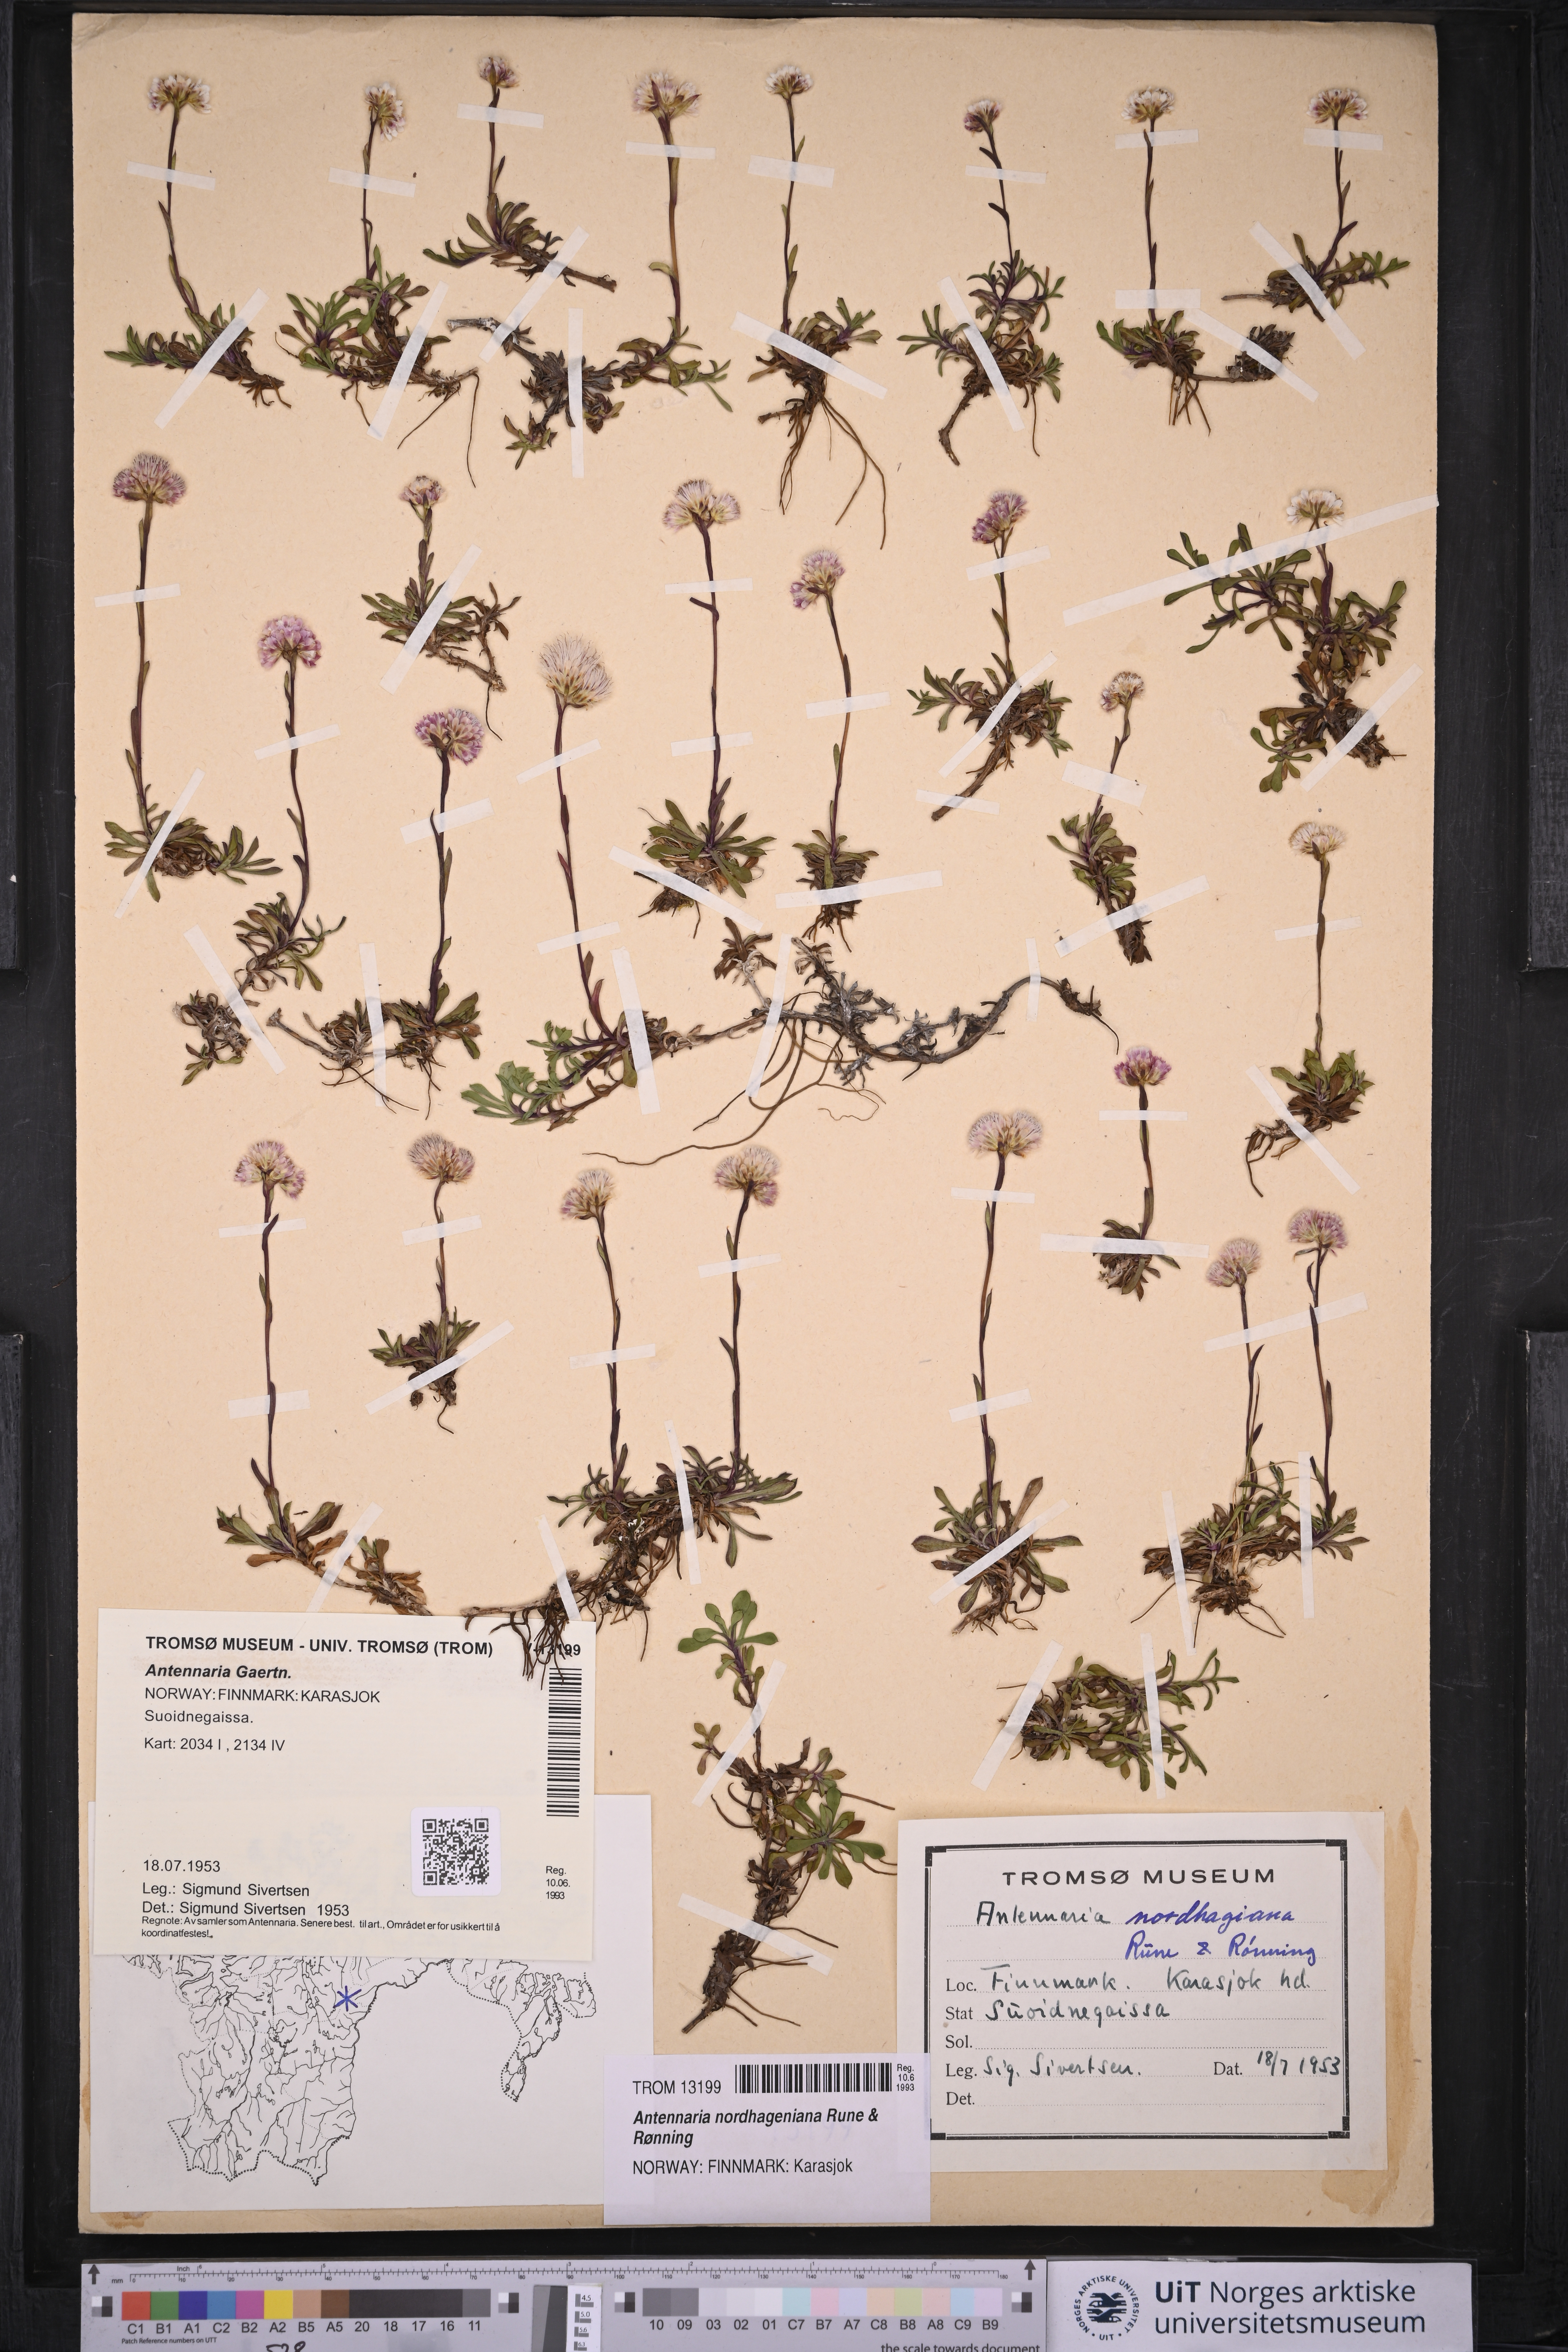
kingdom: Plantae
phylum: Tracheophyta
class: Magnoliopsida
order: Asterales
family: Asteraceae
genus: Antennaria
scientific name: Antennaria nordhageniana
